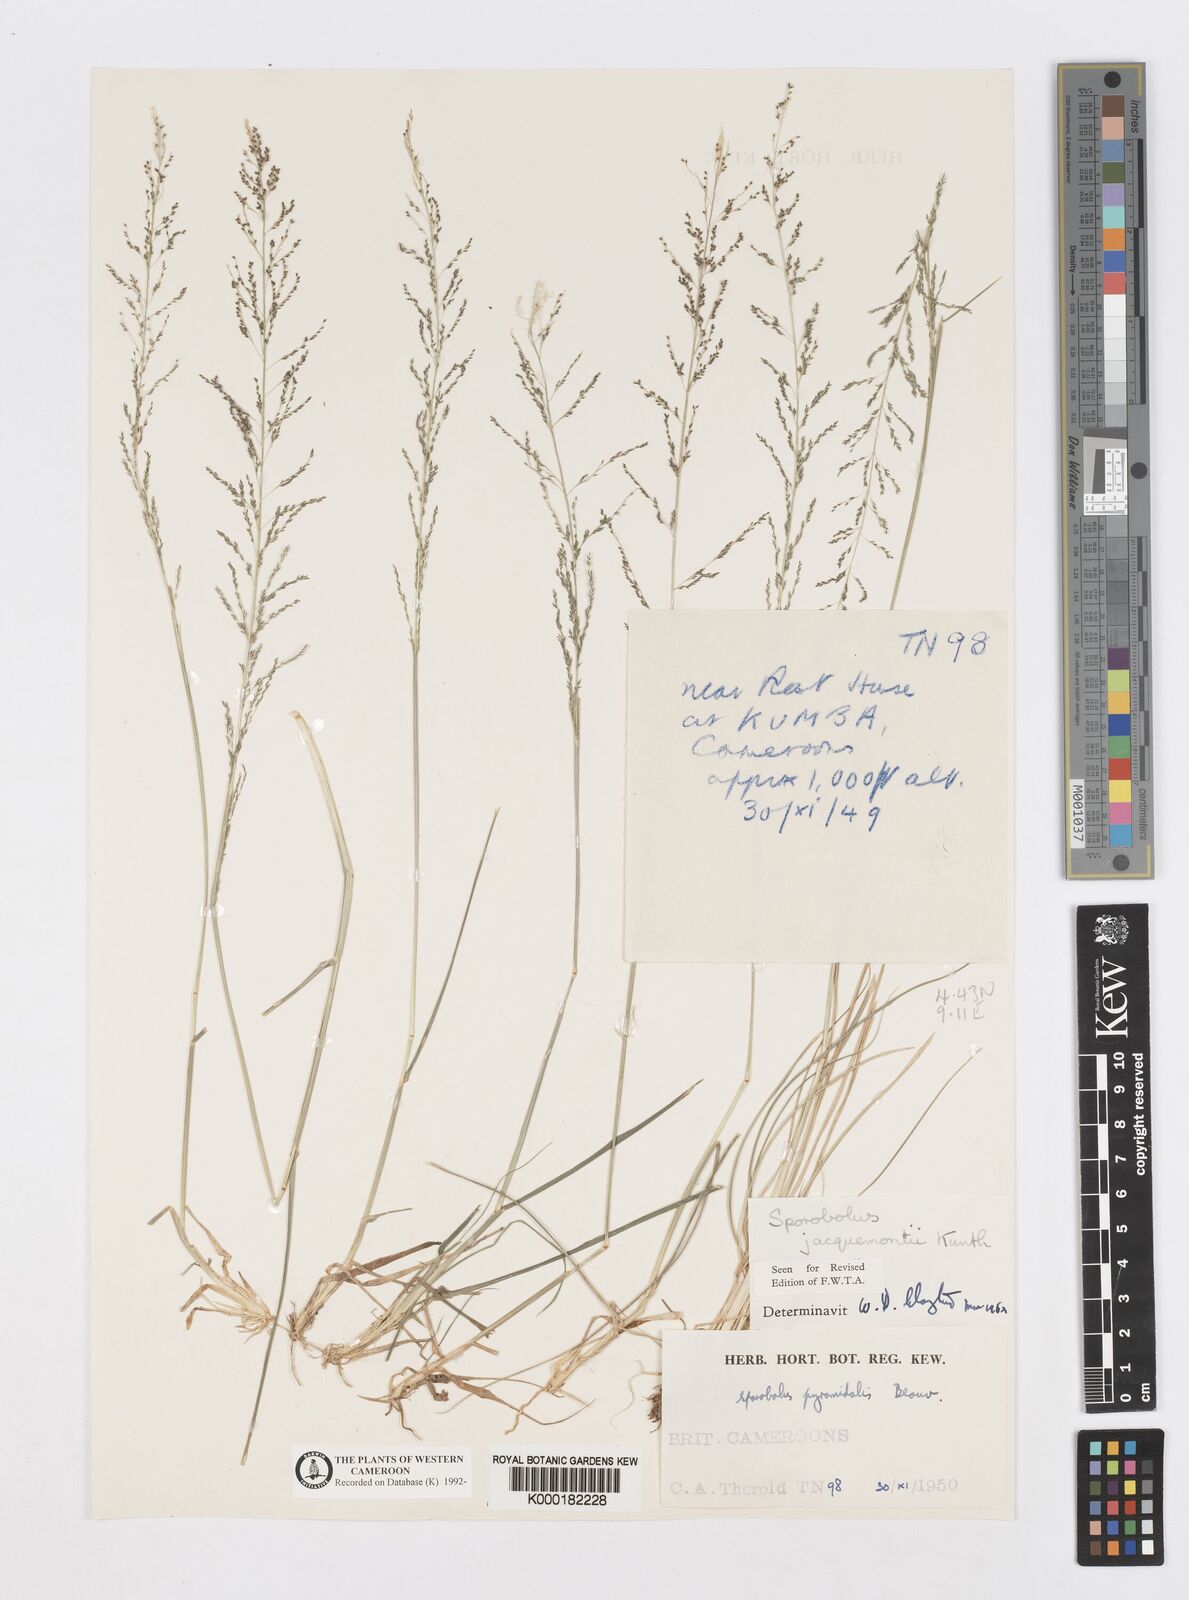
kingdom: Plantae
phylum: Tracheophyta
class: Liliopsida
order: Poales
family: Poaceae
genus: Sporobolus
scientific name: Sporobolus pyramidalis
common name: West indian dropseed
